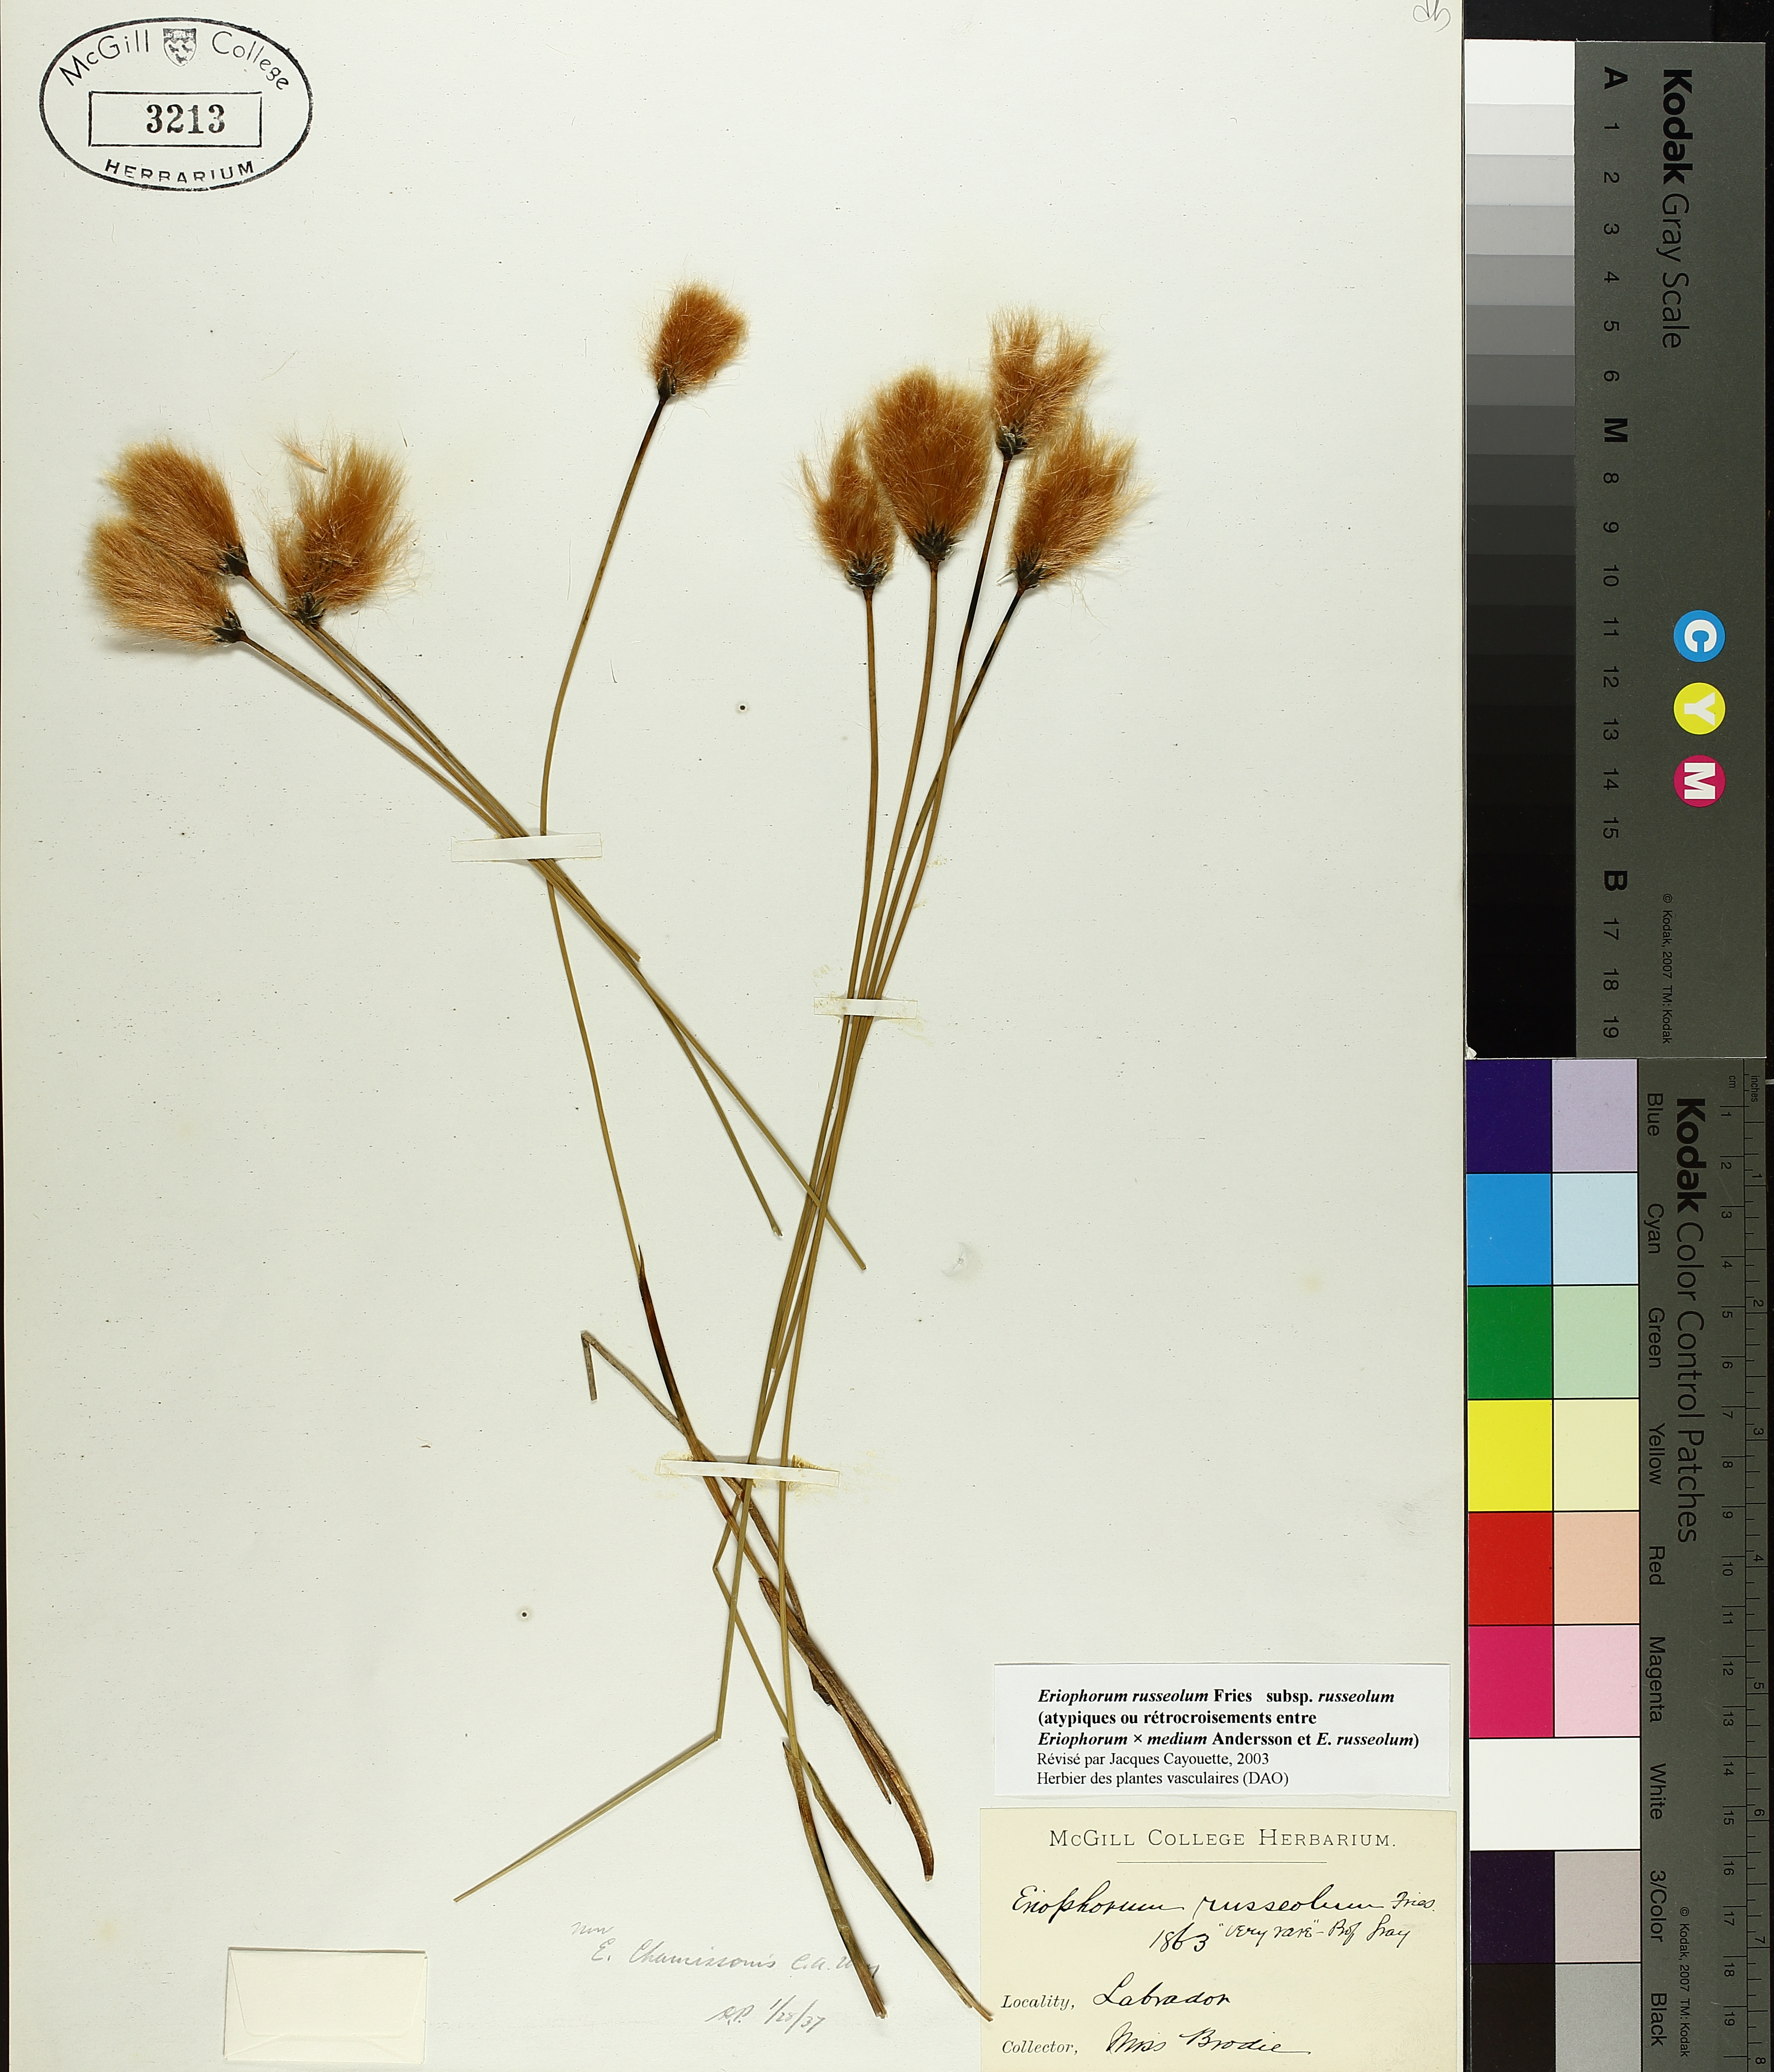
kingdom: Plantae
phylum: Tracheophyta
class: Liliopsida
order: Poales
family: Cyperaceae
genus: Eriophorum
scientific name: Eriophorum chamissonis
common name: Chamisso's cottongrass
